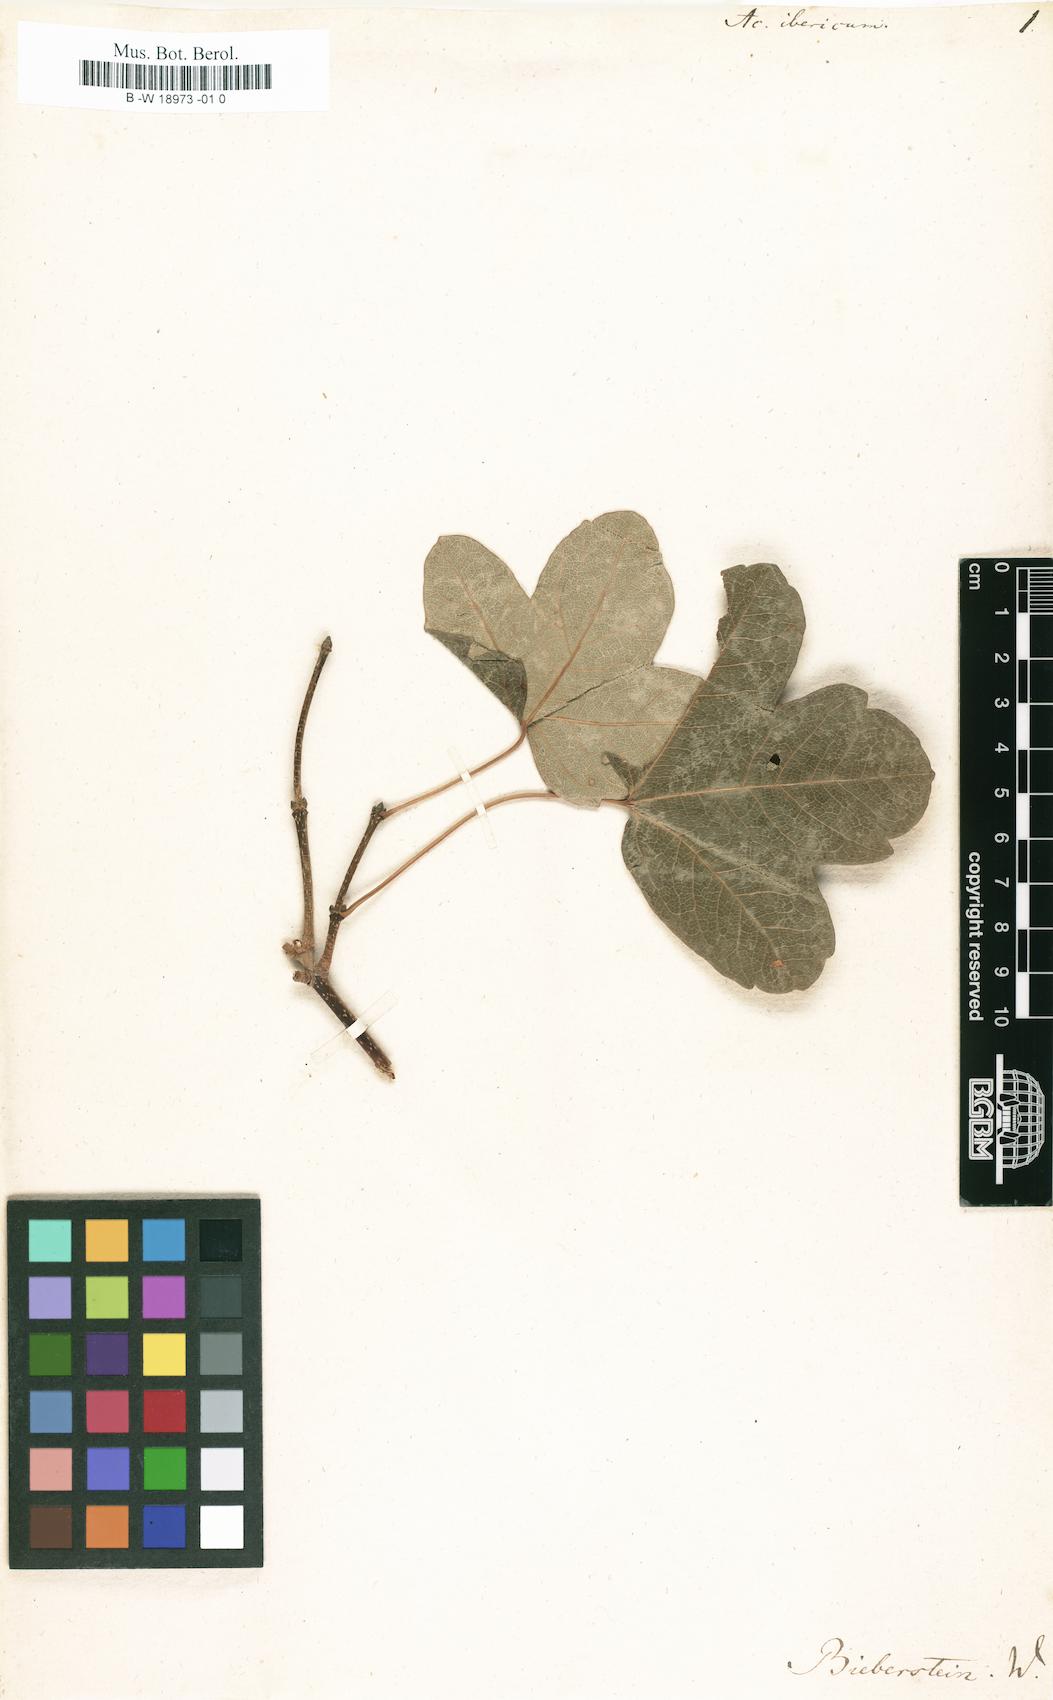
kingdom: Plantae
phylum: Tracheophyta
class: Magnoliopsida
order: Sapindales
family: Sapindaceae
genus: Acer
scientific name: Acer monspessulanum
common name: Montpellier maple
